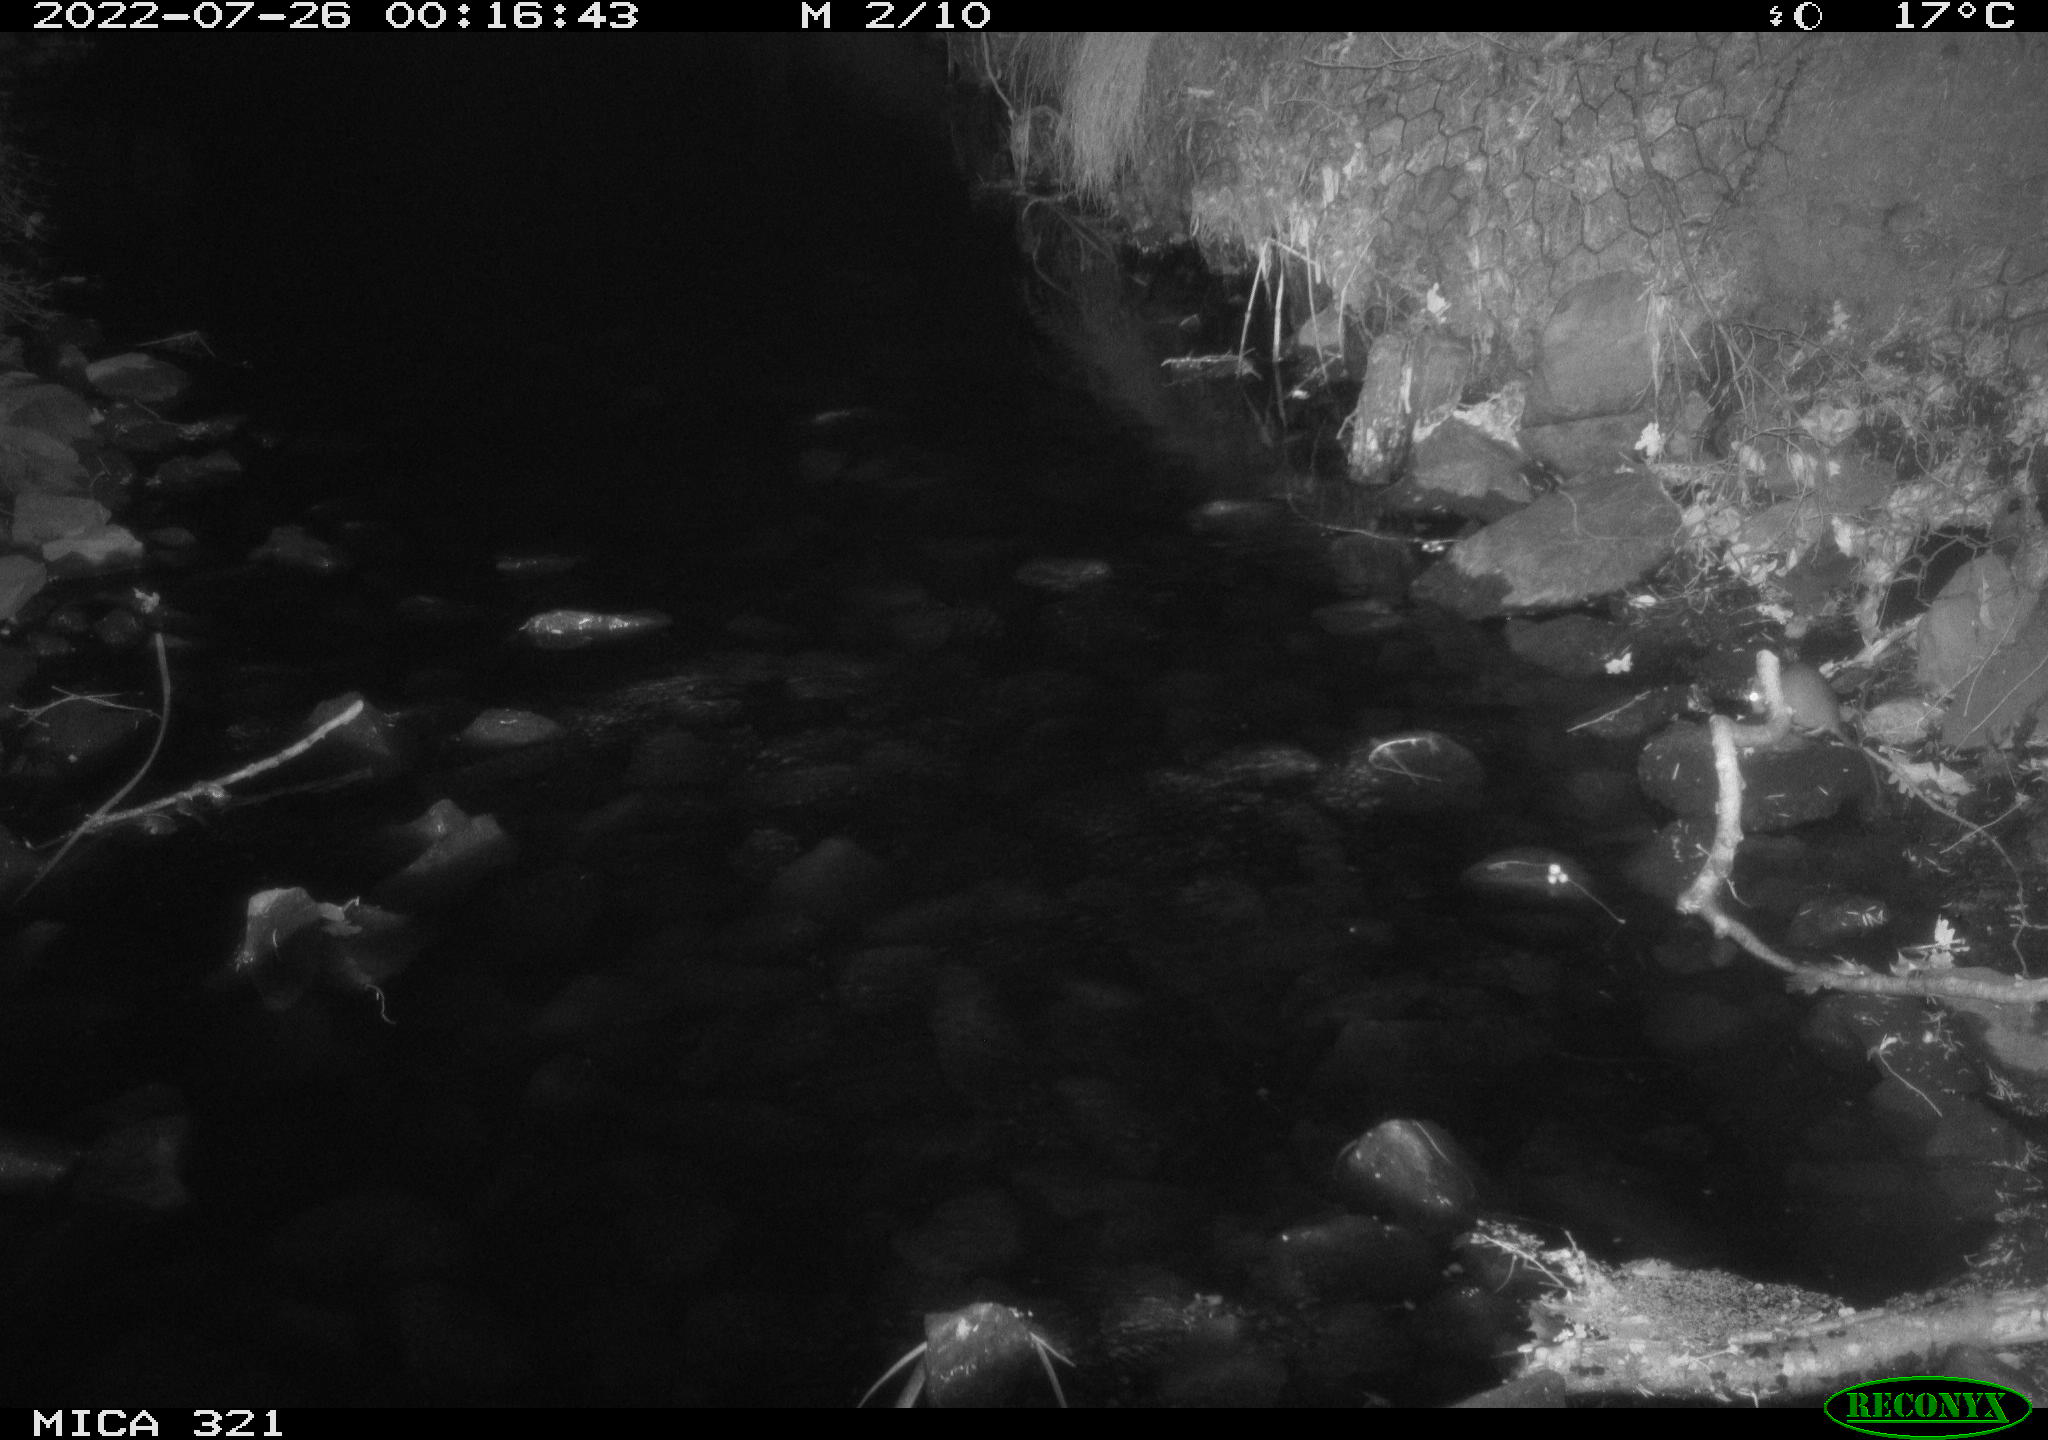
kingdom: Animalia
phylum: Chordata
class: Mammalia
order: Rodentia
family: Muridae
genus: Rattus
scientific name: Rattus norvegicus
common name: Brown rat
